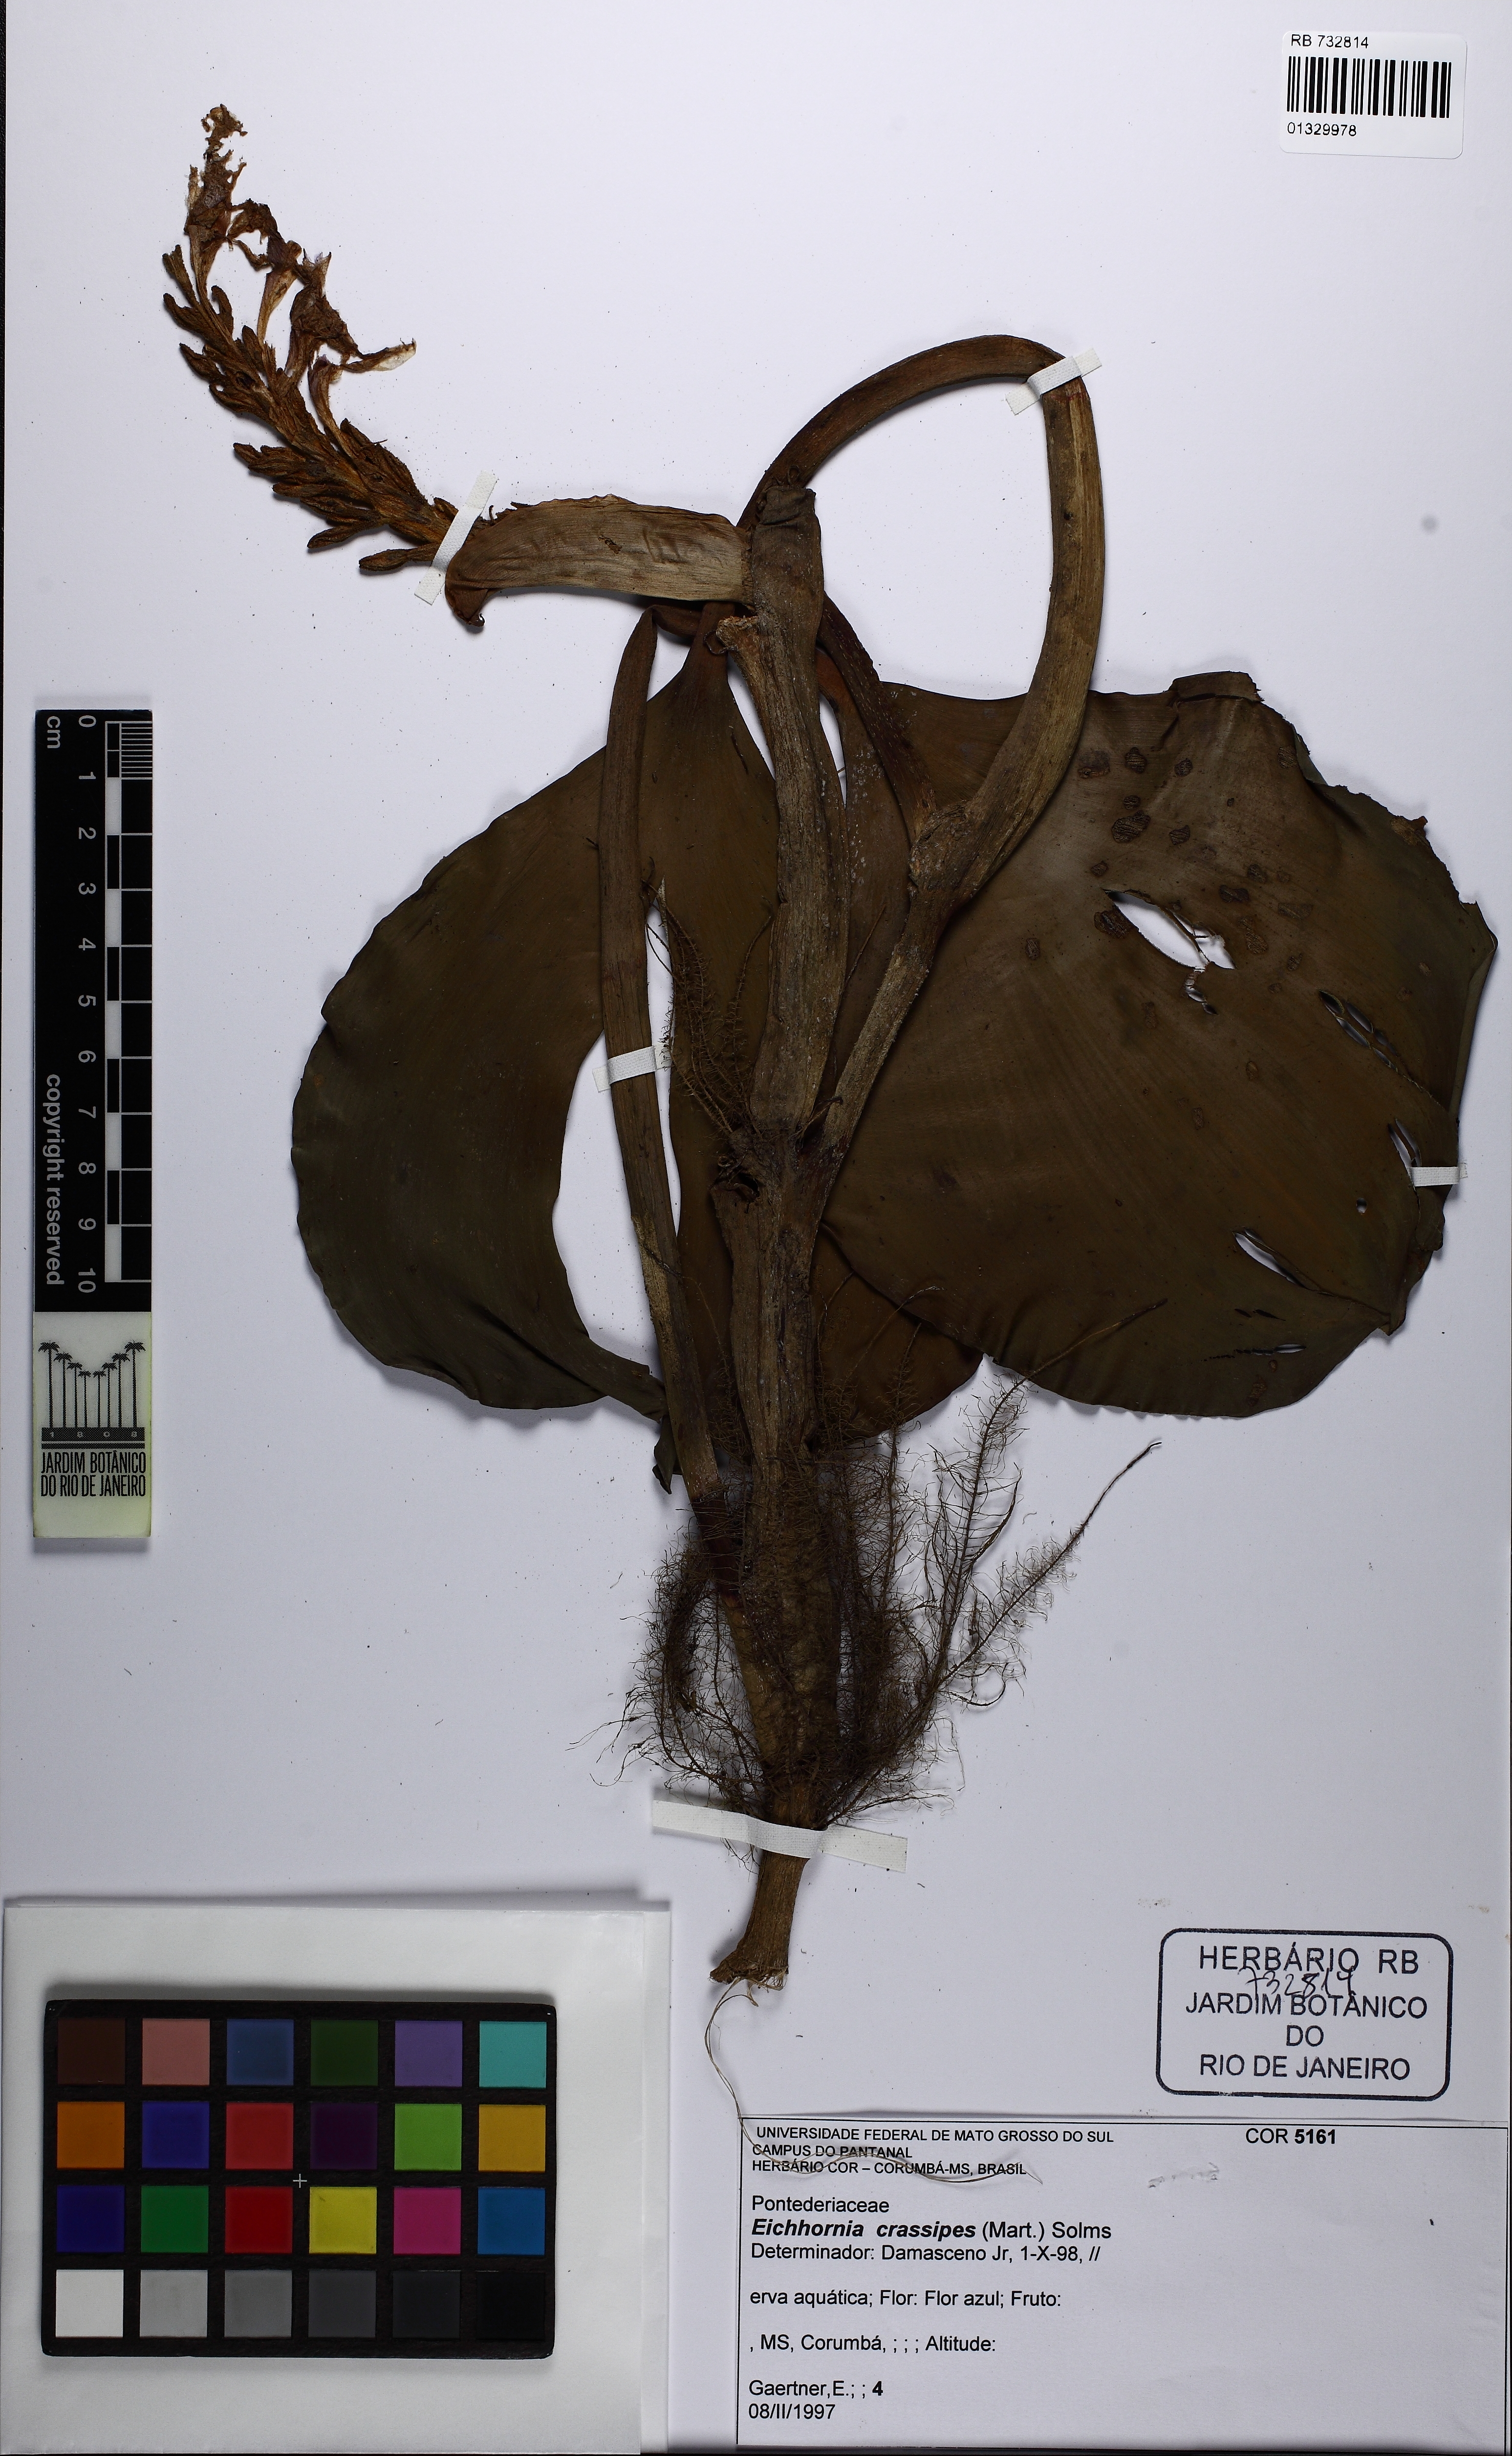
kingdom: Plantae
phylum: Tracheophyta
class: Liliopsida
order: Commelinales
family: Pontederiaceae
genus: Pontederia
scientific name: Pontederia crassipes
